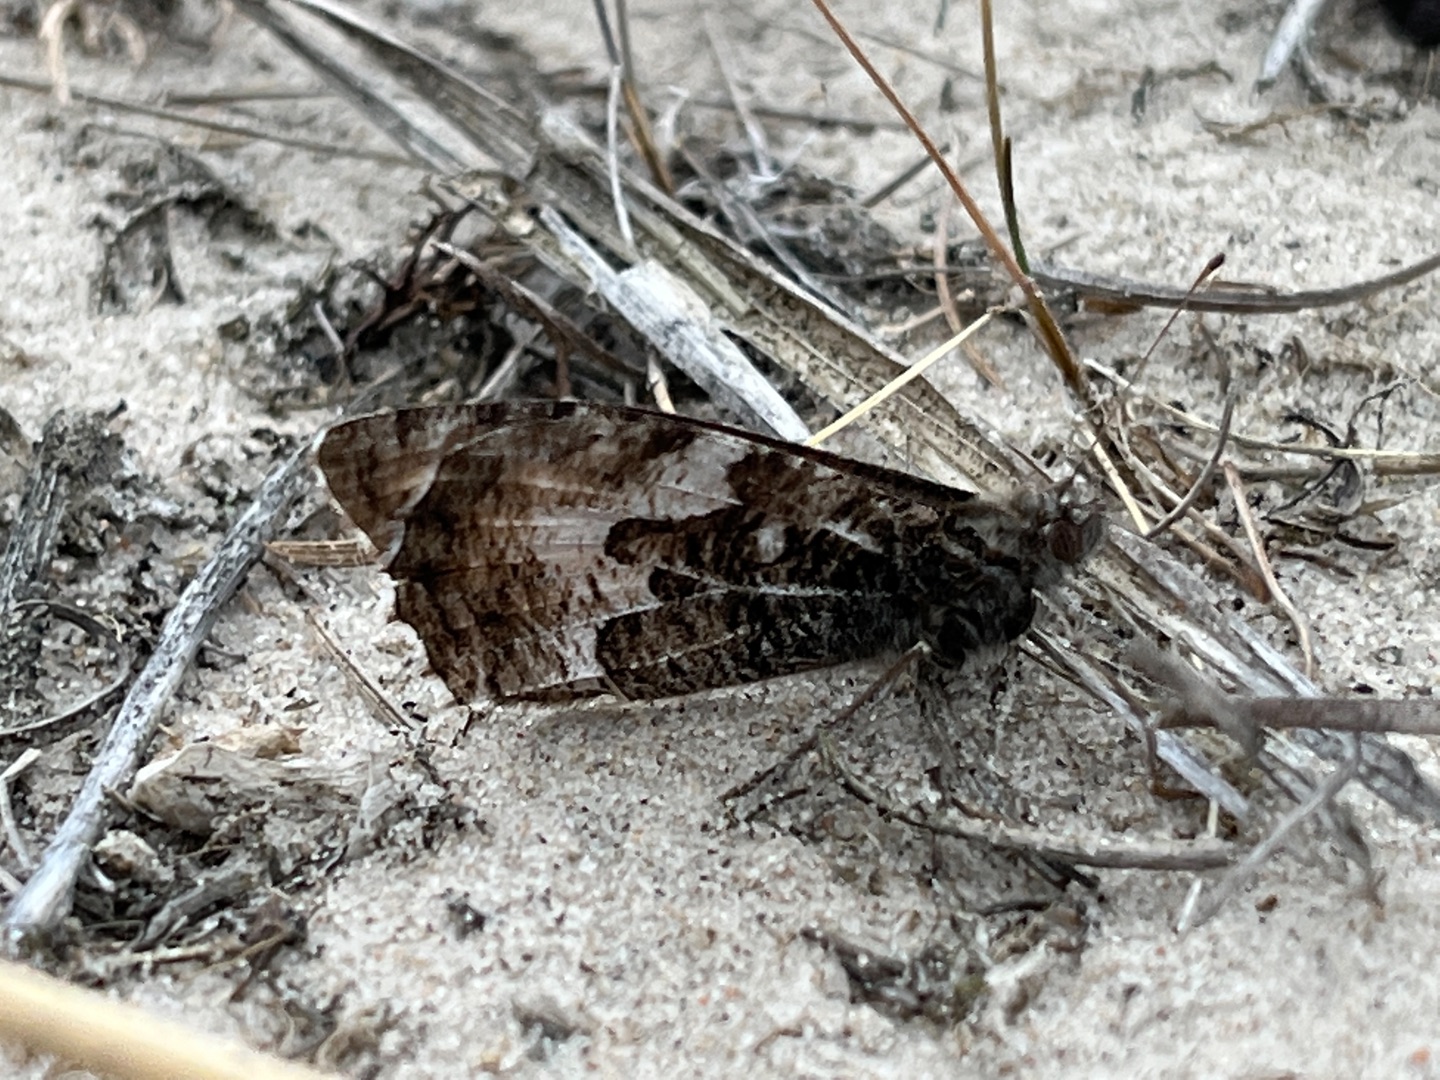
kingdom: Animalia
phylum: Arthropoda
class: Insecta
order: Lepidoptera
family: Nymphalidae
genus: Hipparchia
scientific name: Hipparchia semele
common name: Sandrandøje
